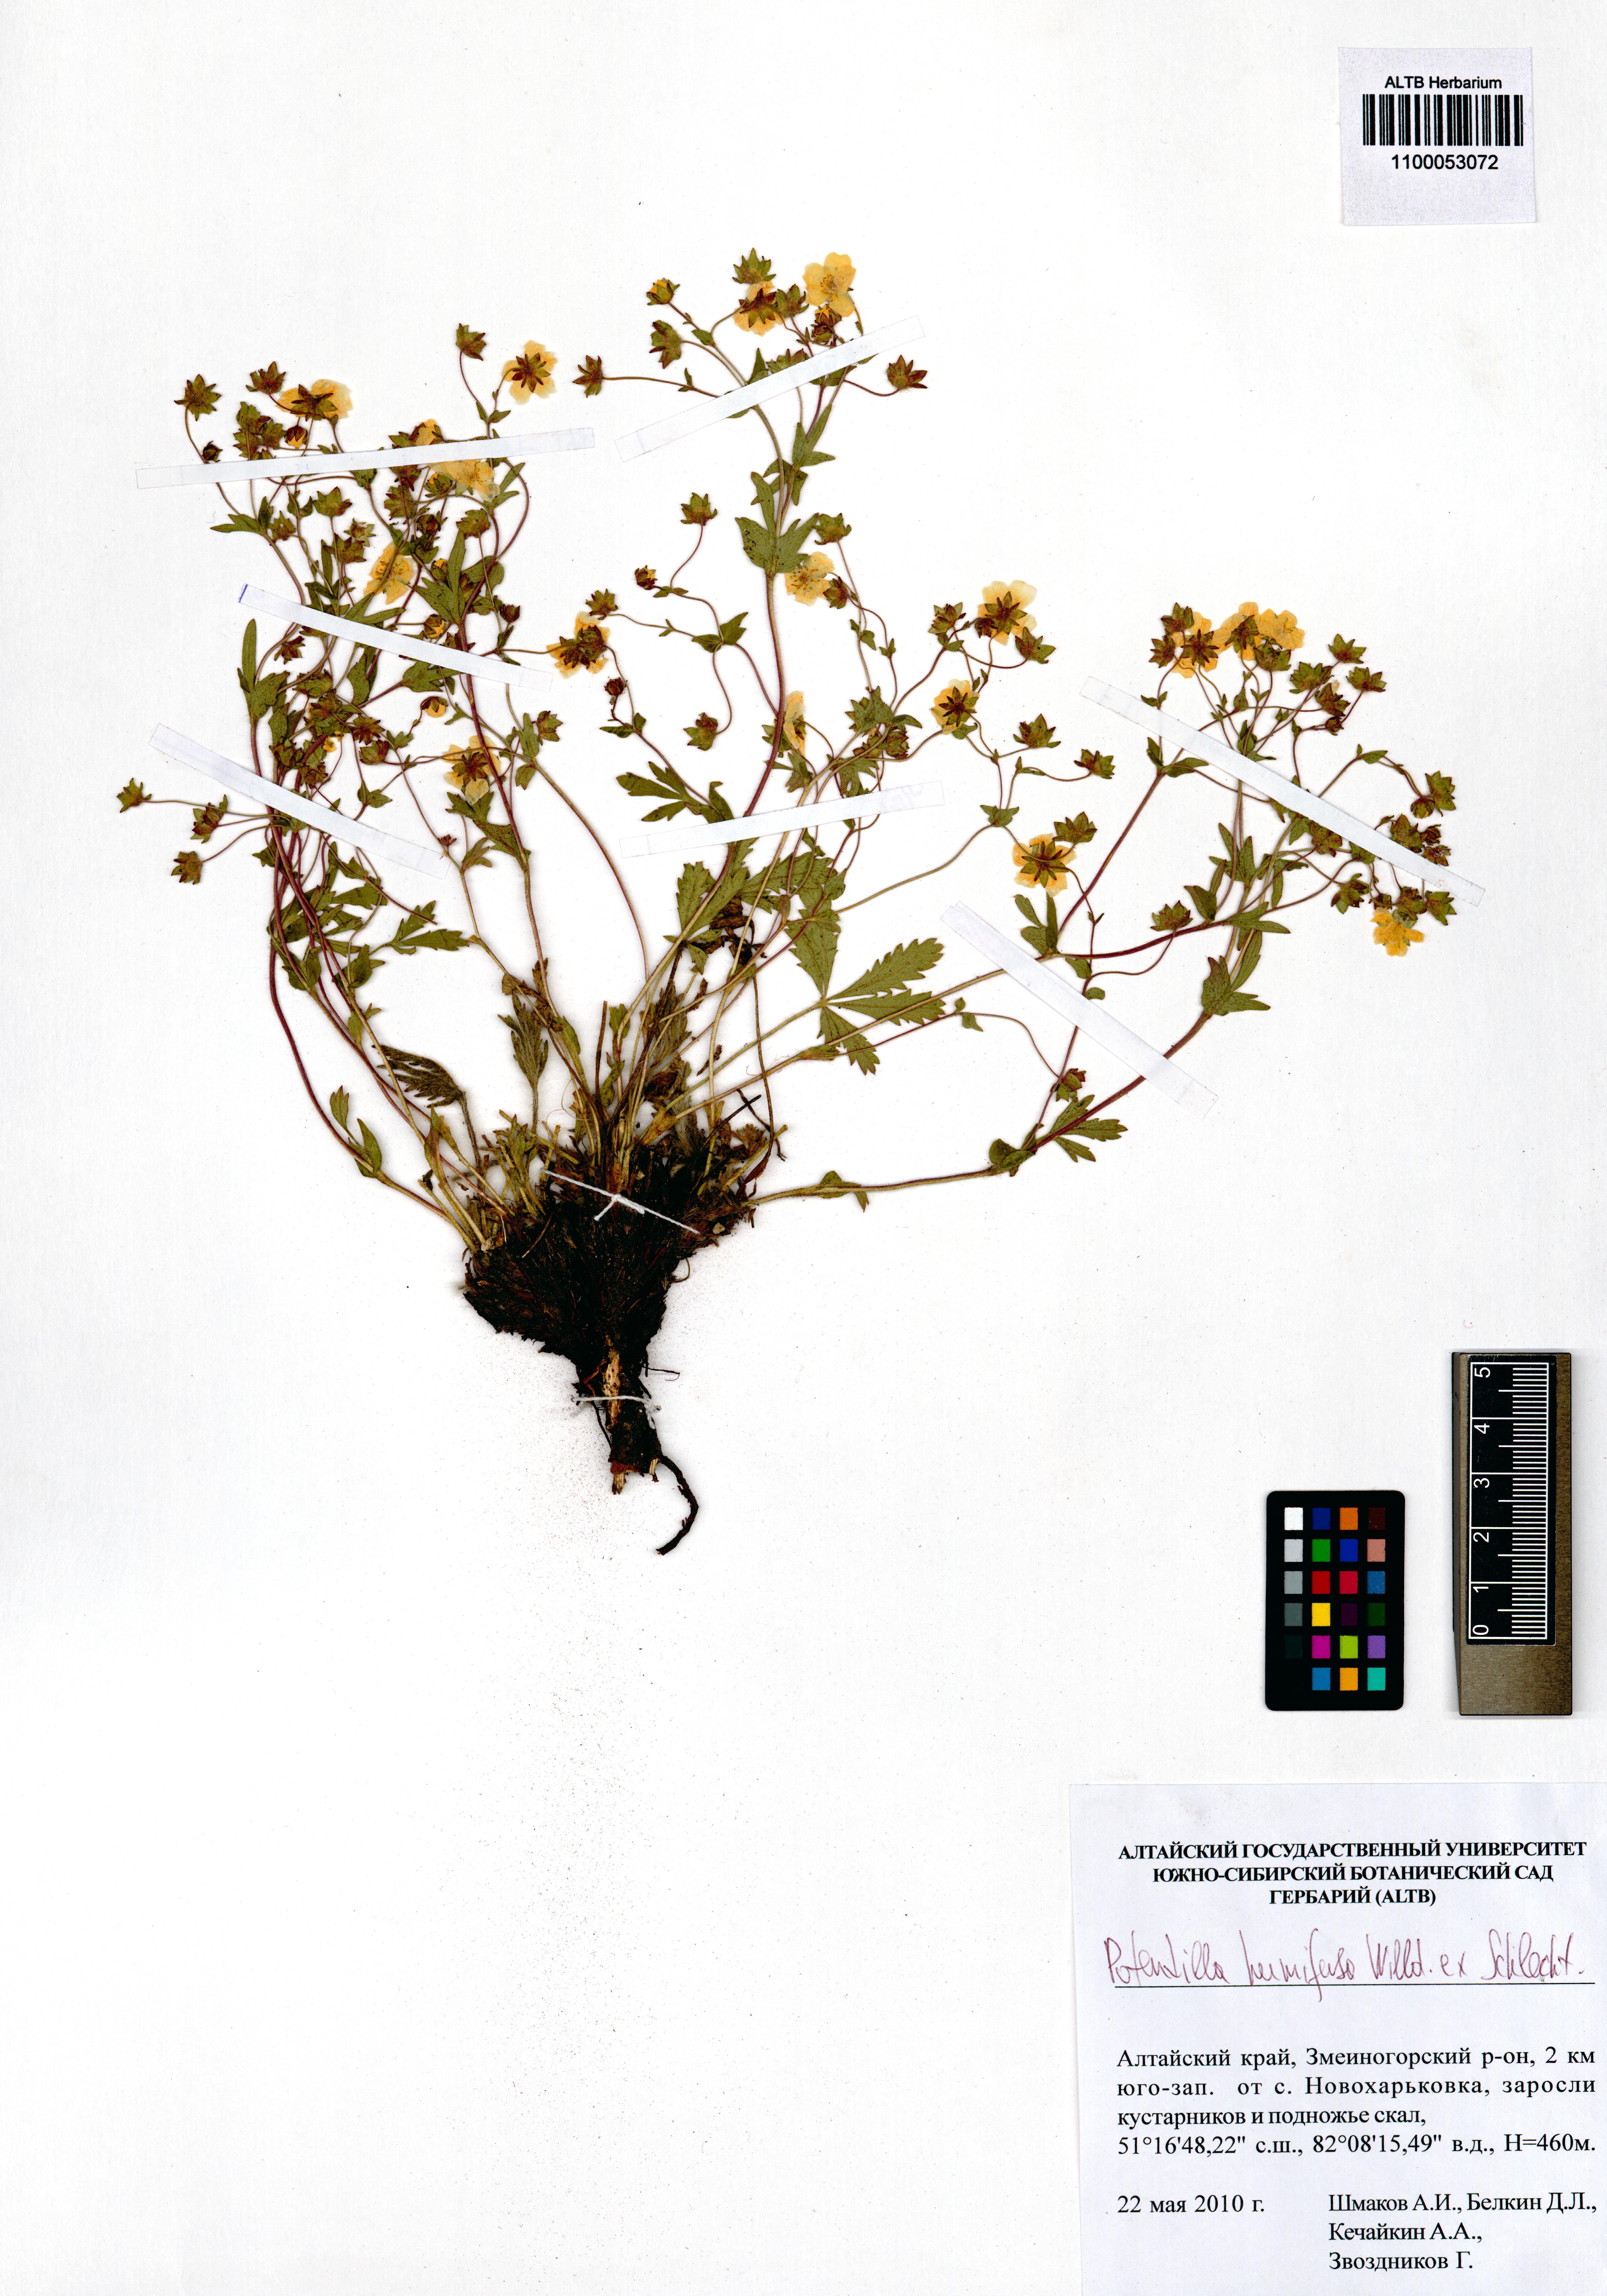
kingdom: Plantae
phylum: Tracheophyta
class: Magnoliopsida
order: Rosales
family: Rosaceae
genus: Potentilla
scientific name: Potentilla humifusa
